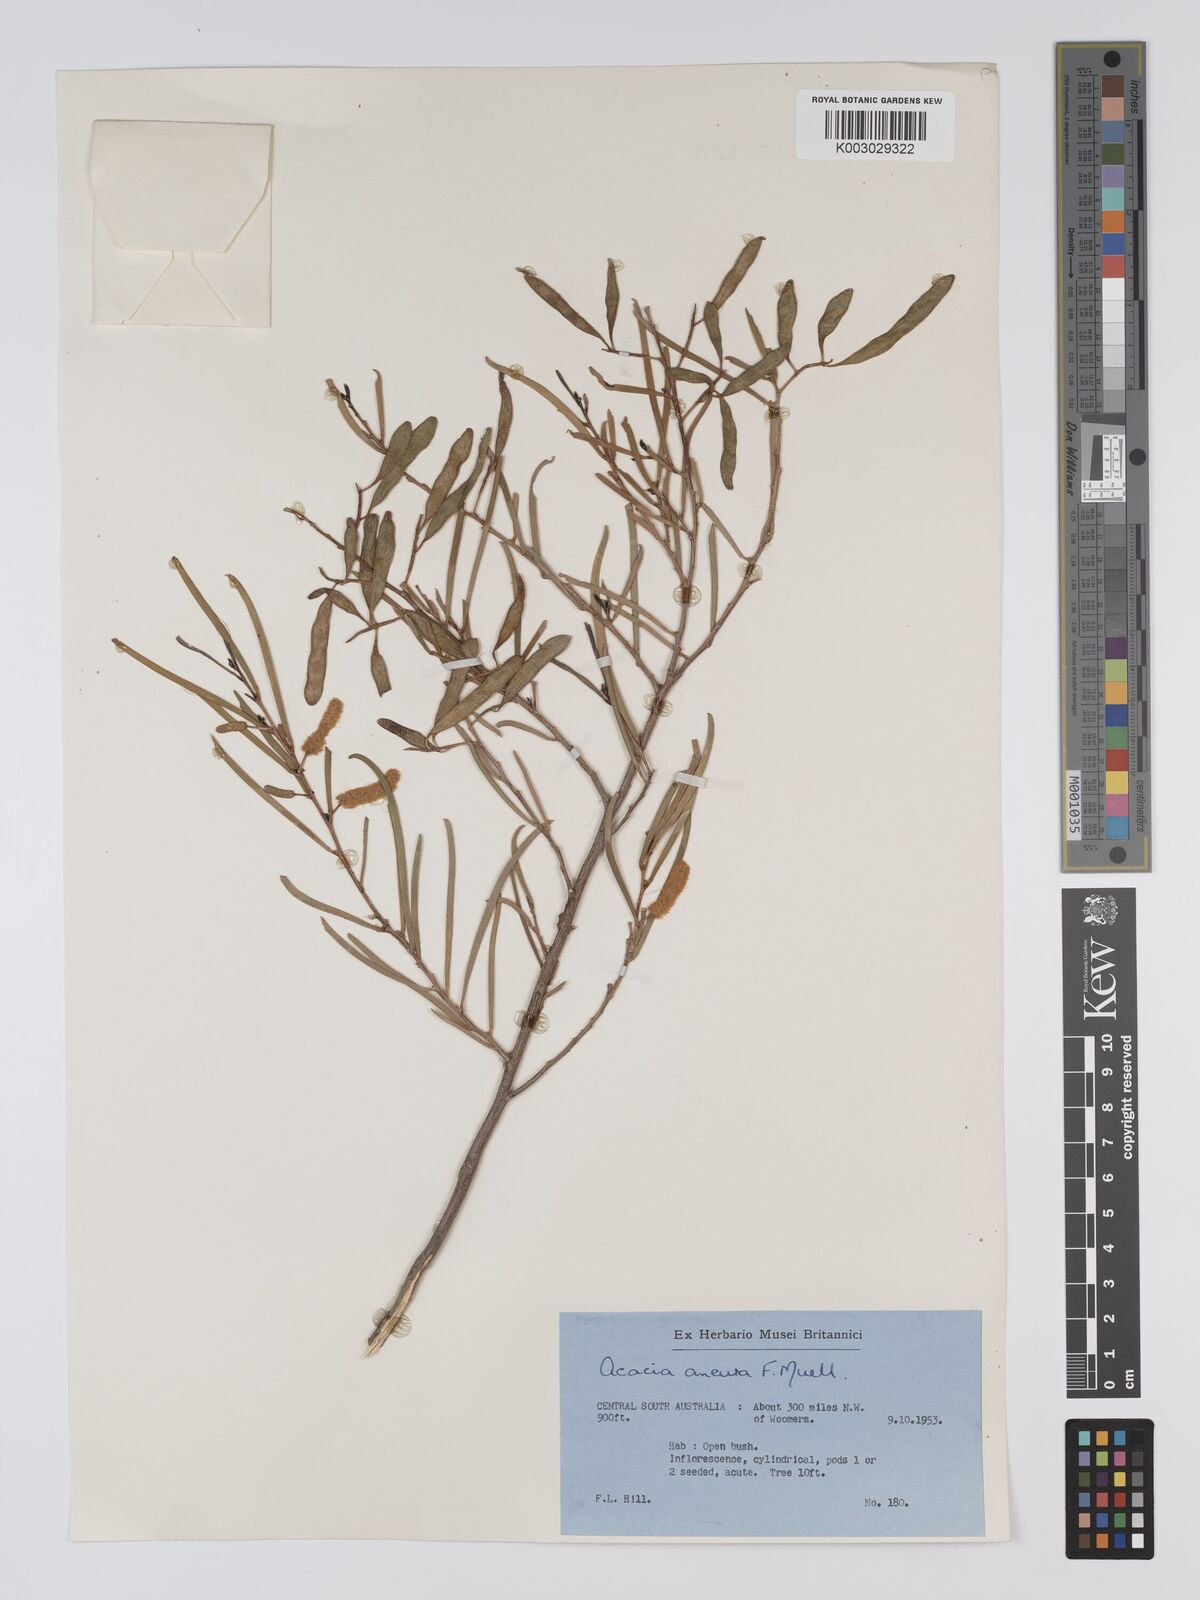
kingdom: Plantae
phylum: Tracheophyta
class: Magnoliopsida
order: Fabales
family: Fabaceae
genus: Acacia
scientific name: Acacia aneura
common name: Mulga
